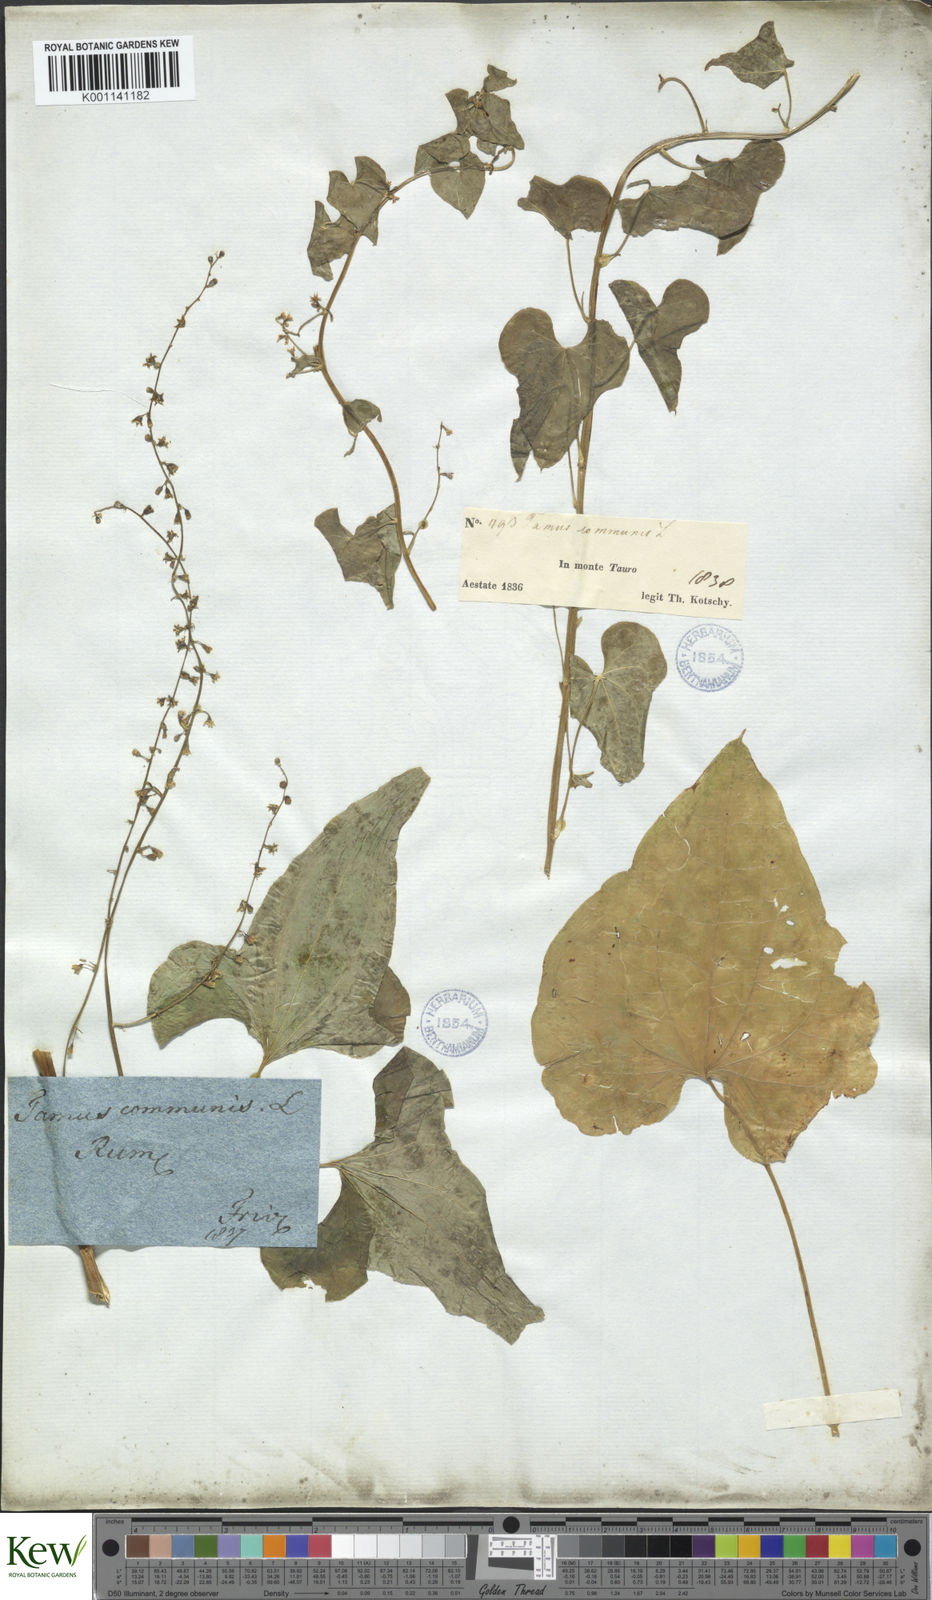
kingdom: Plantae
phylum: Tracheophyta
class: Liliopsida
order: Dioscoreales
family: Dioscoreaceae
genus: Dioscorea
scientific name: Dioscorea communis
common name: Black-bindweed
